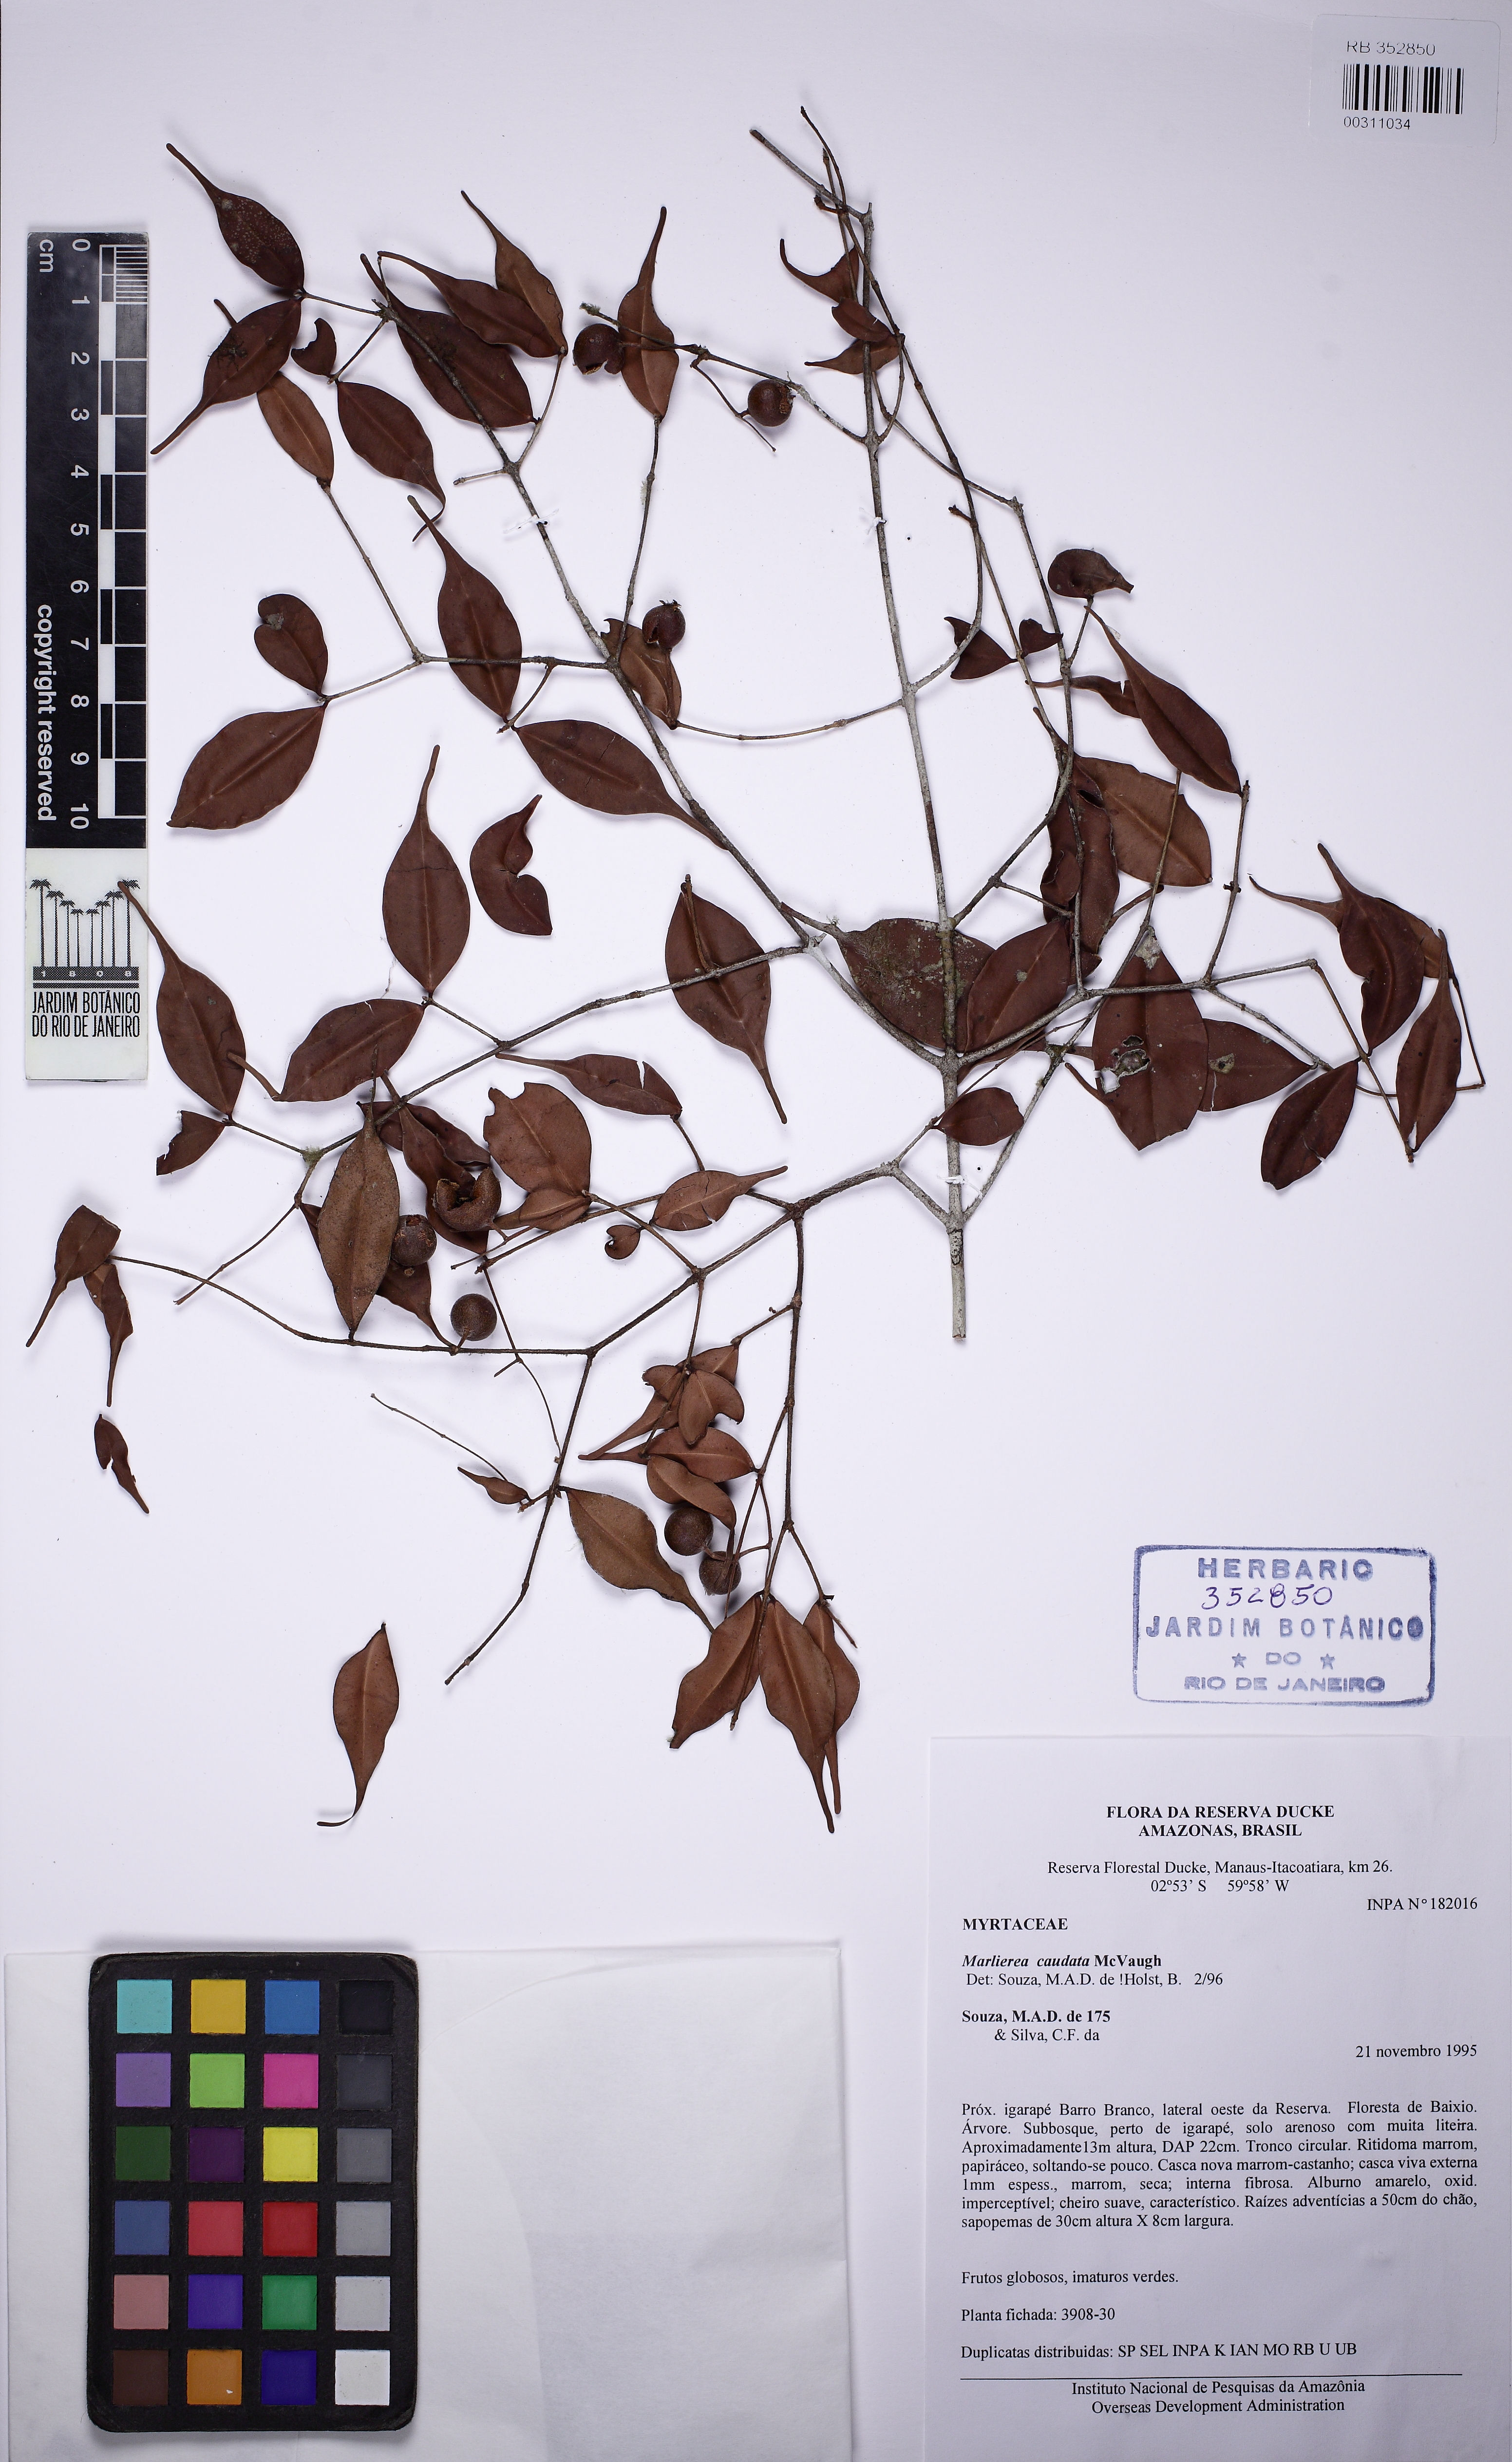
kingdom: Plantae
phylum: Tracheophyta
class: Magnoliopsida
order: Myrtales
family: Myrtaceae
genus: Myrcia
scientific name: Myrcia caudata
